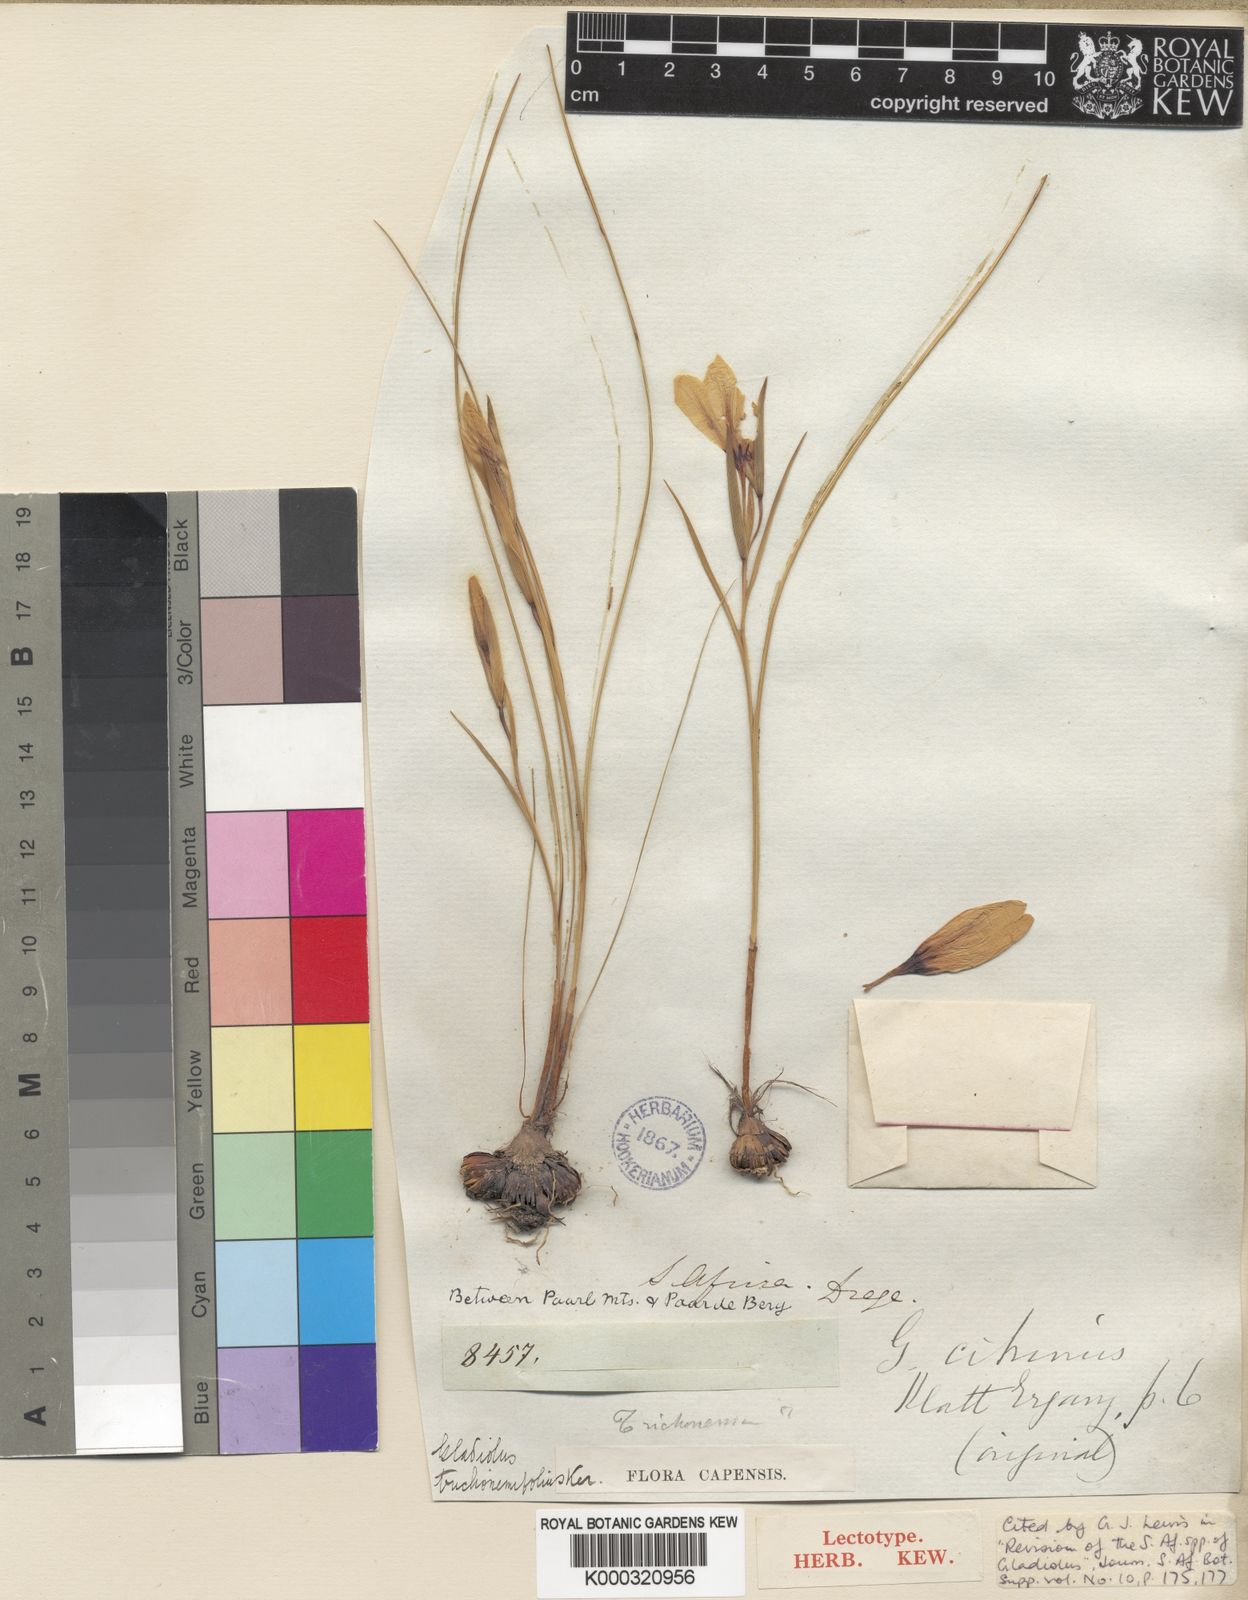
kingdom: Plantae
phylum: Tracheophyta
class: Liliopsida
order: Asparagales
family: Iridaceae
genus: Gladiolus
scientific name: Gladiolus trichonemifolius
